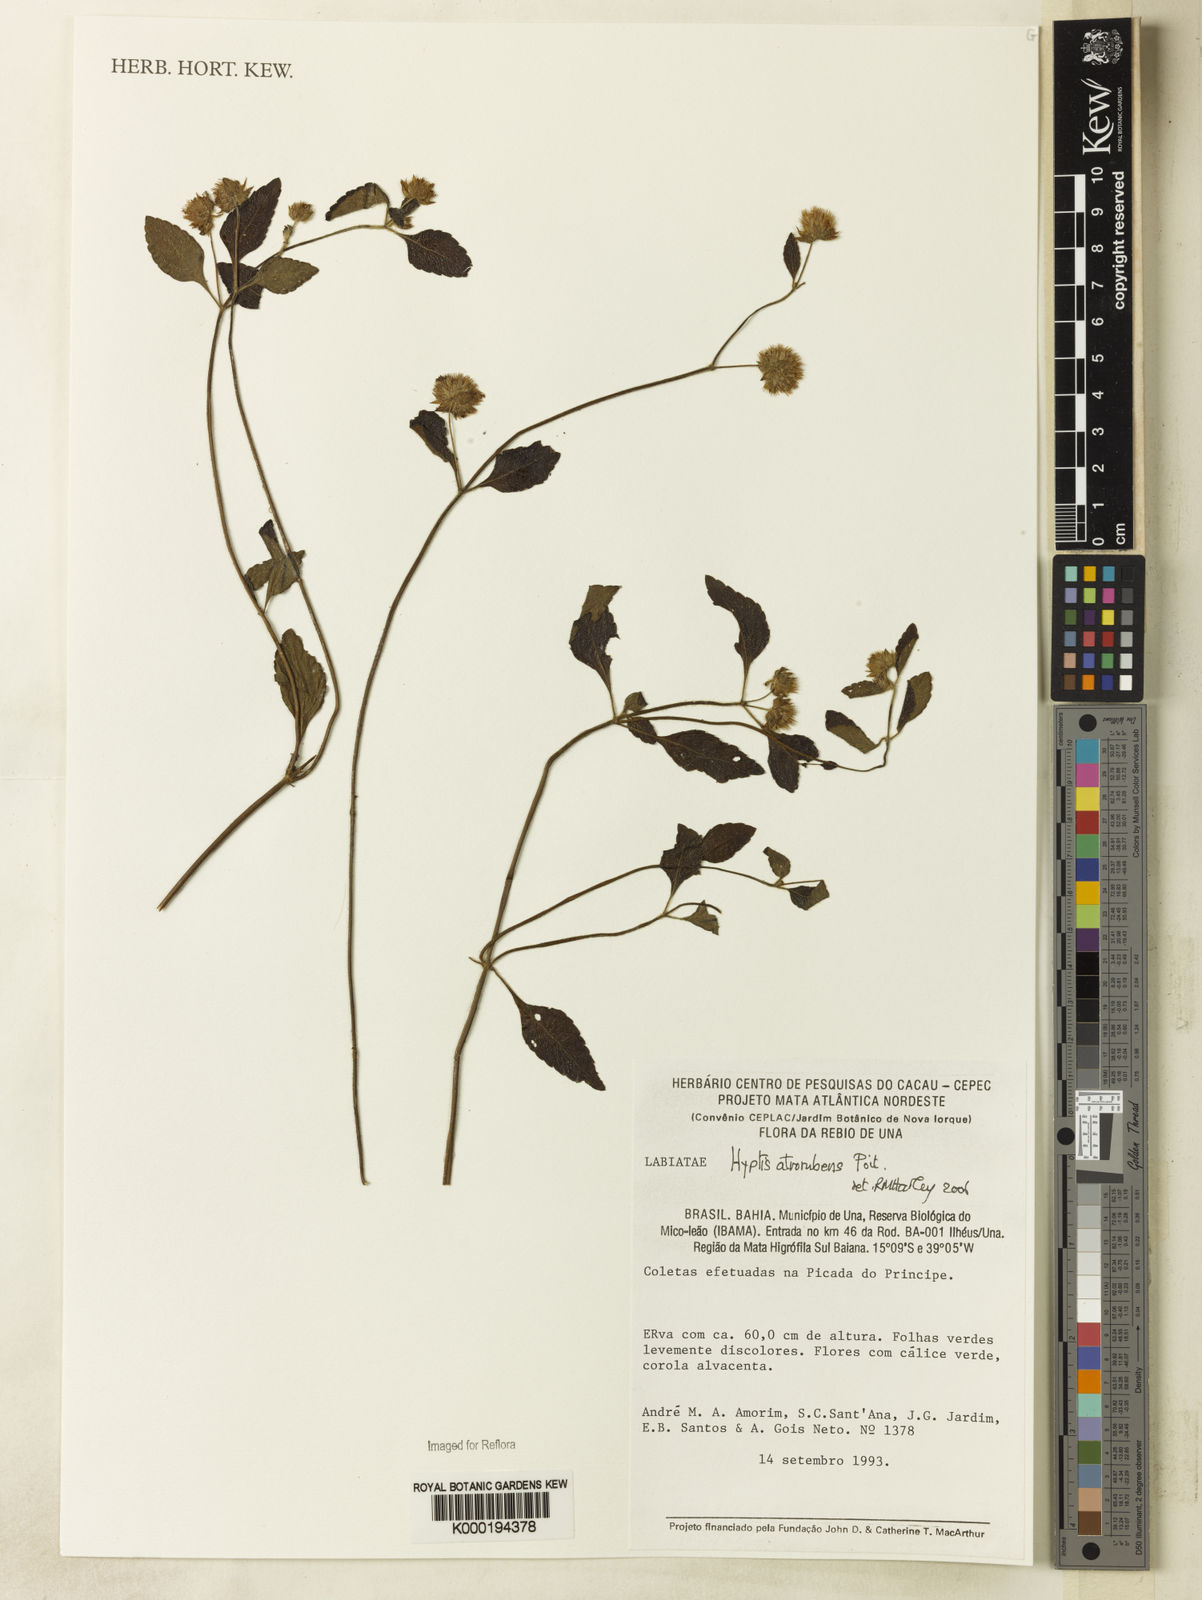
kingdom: Plantae
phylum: Tracheophyta
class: Magnoliopsida
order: Lamiales
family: Lamiaceae
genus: Hyptis
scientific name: Hyptis atrorubens
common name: Lanmant
